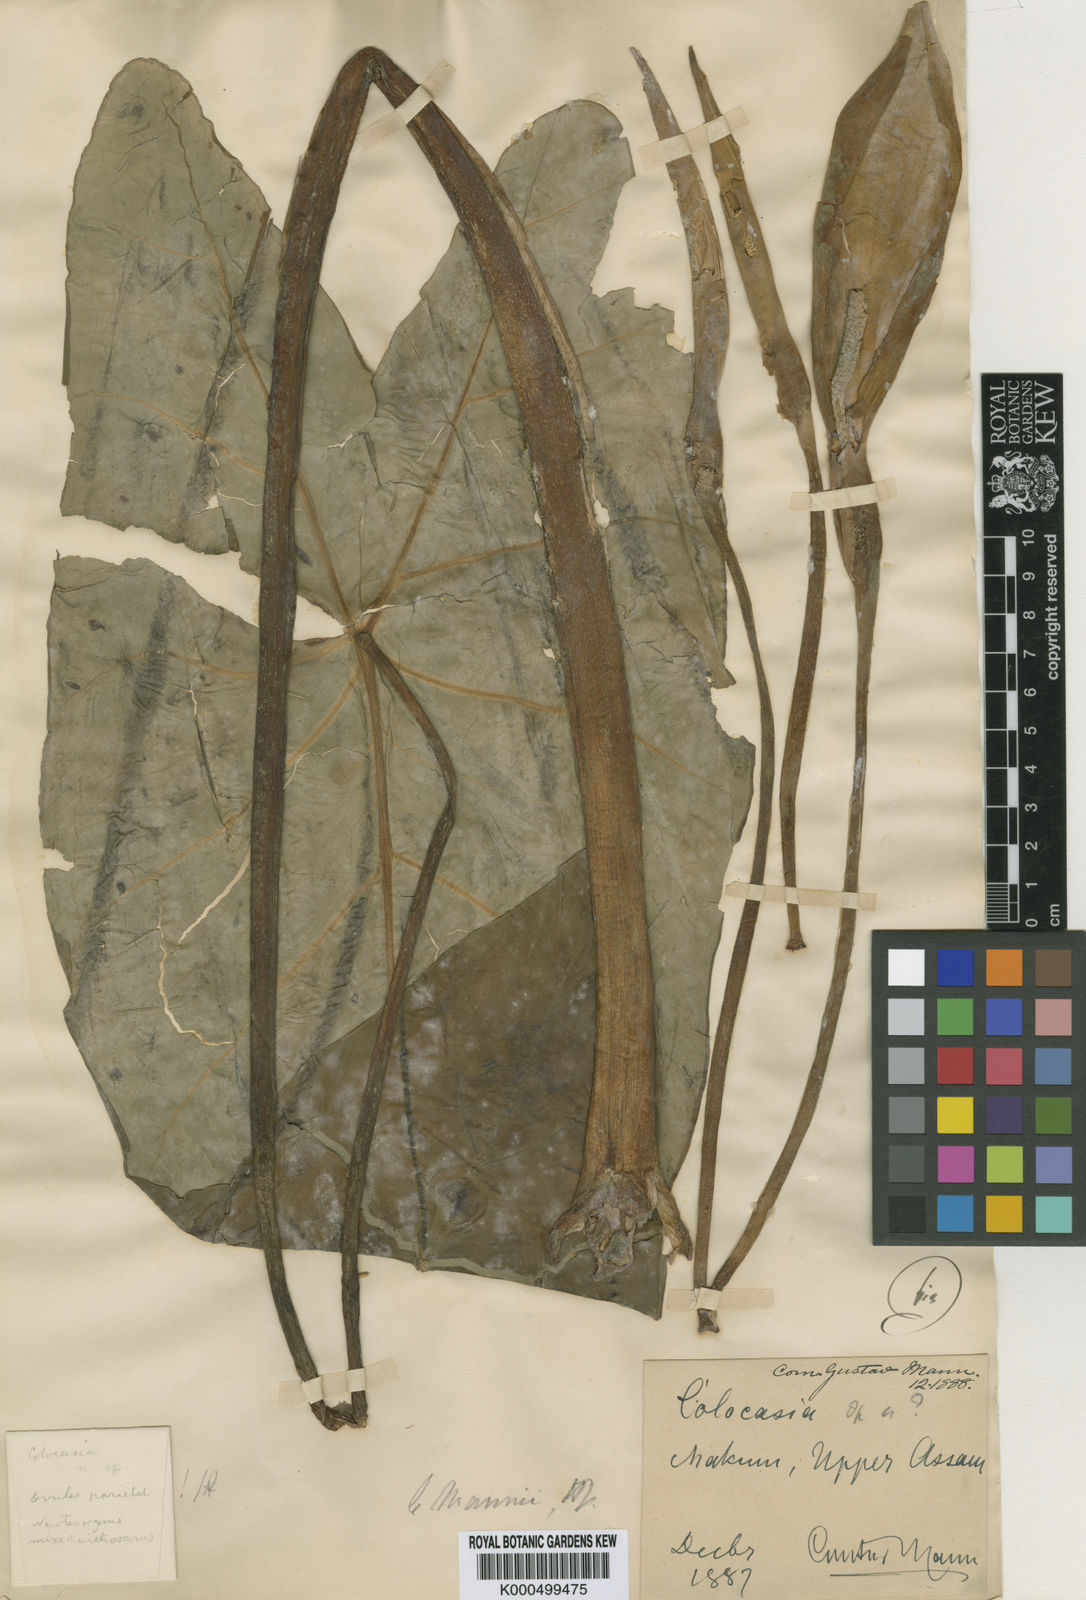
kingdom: Plantae
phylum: Tracheophyta
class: Liliopsida
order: Alismatales
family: Araceae
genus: Colocasia
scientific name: Colocasia mannii
